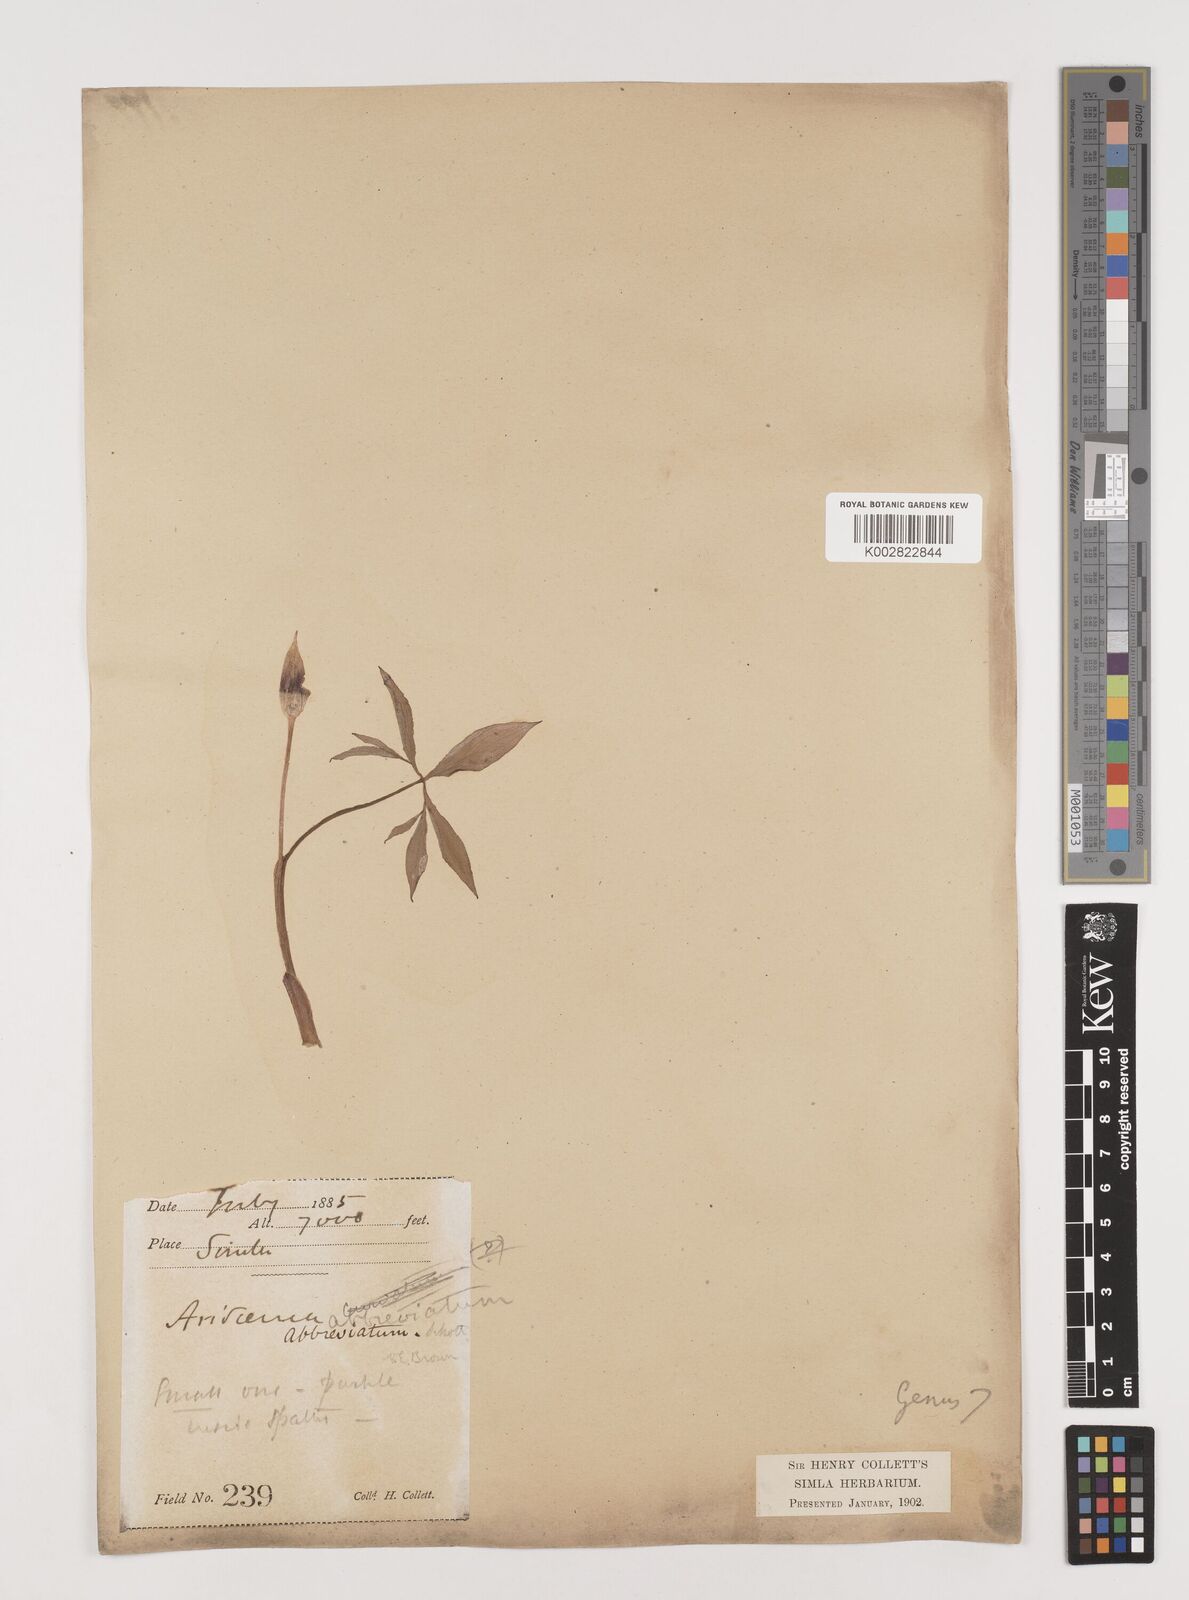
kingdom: Plantae
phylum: Tracheophyta
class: Liliopsida
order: Alismatales
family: Araceae
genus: Arisaema
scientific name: Arisaema flavum
